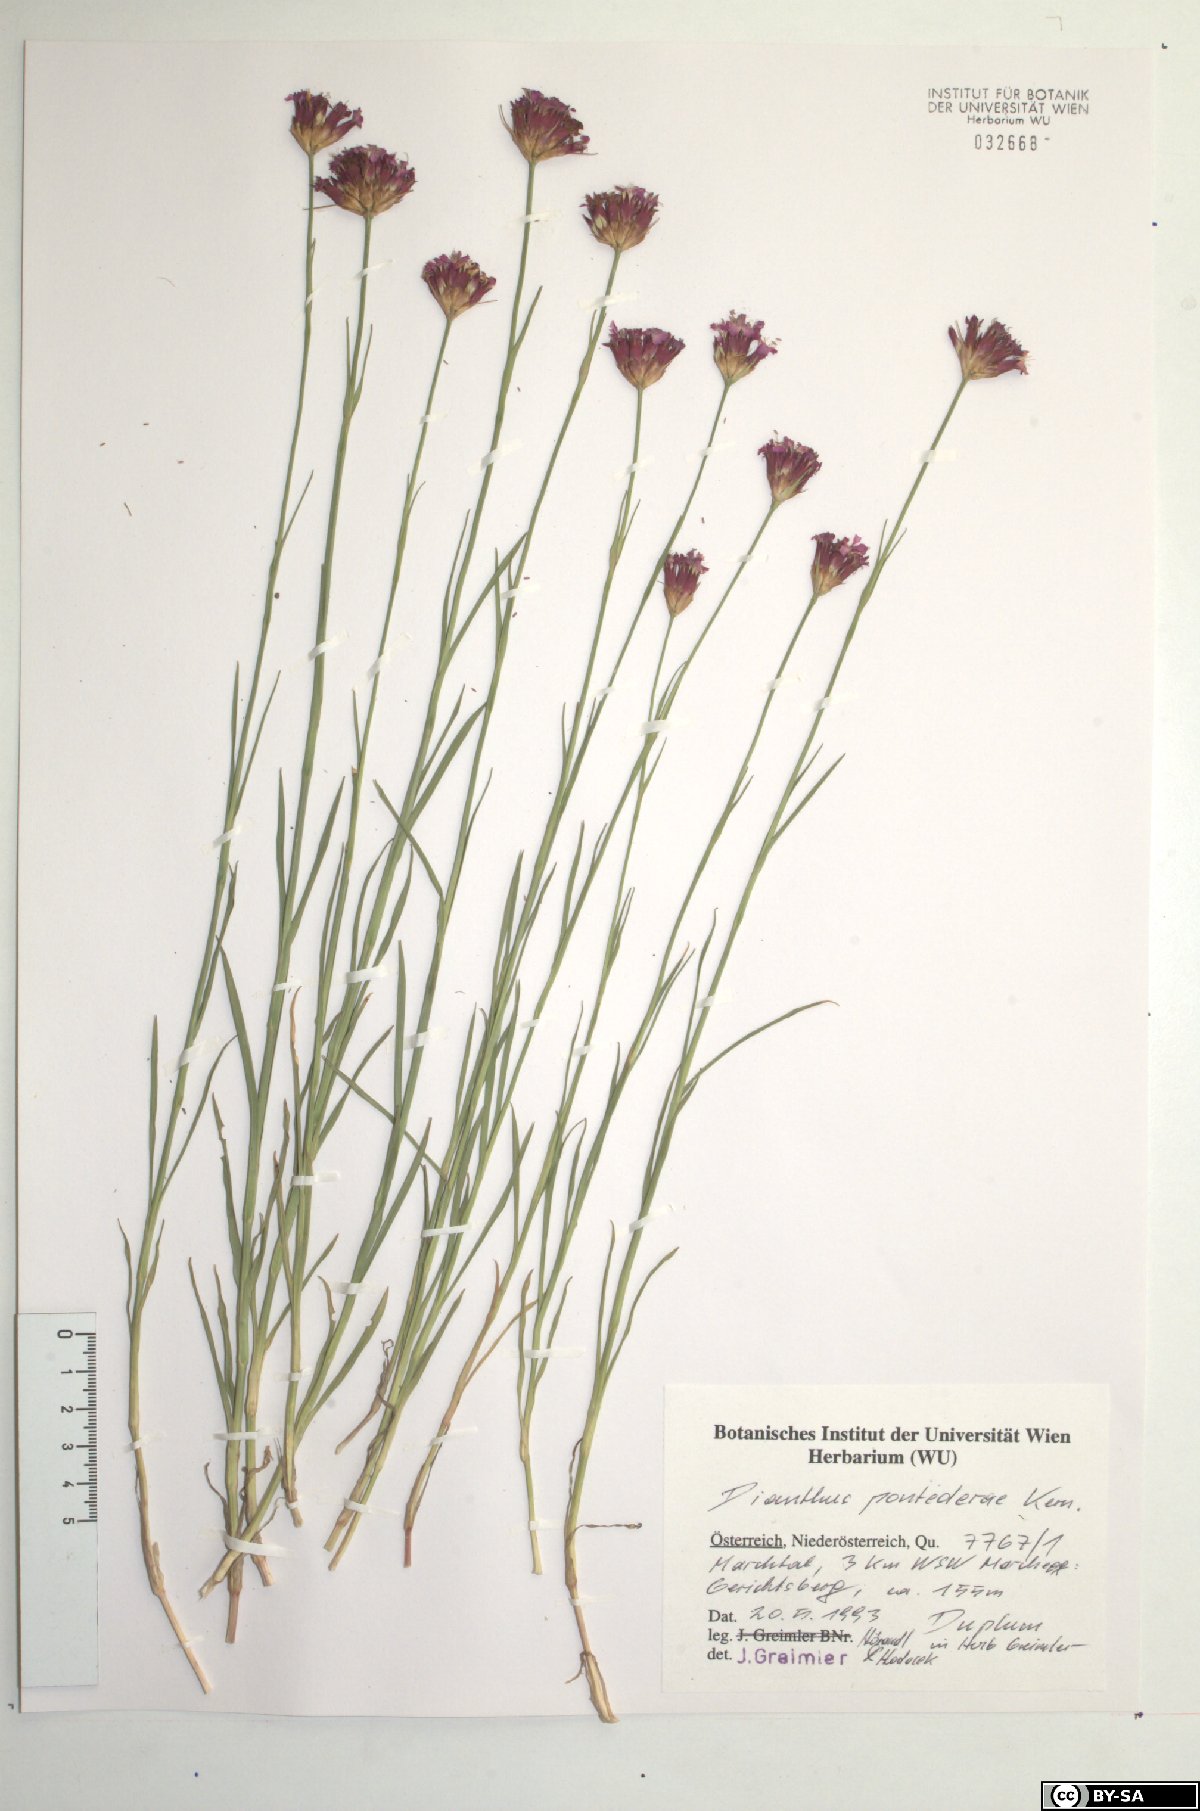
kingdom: Plantae
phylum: Tracheophyta
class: Magnoliopsida
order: Caryophyllales
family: Caryophyllaceae
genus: Dianthus
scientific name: Dianthus pontederae
